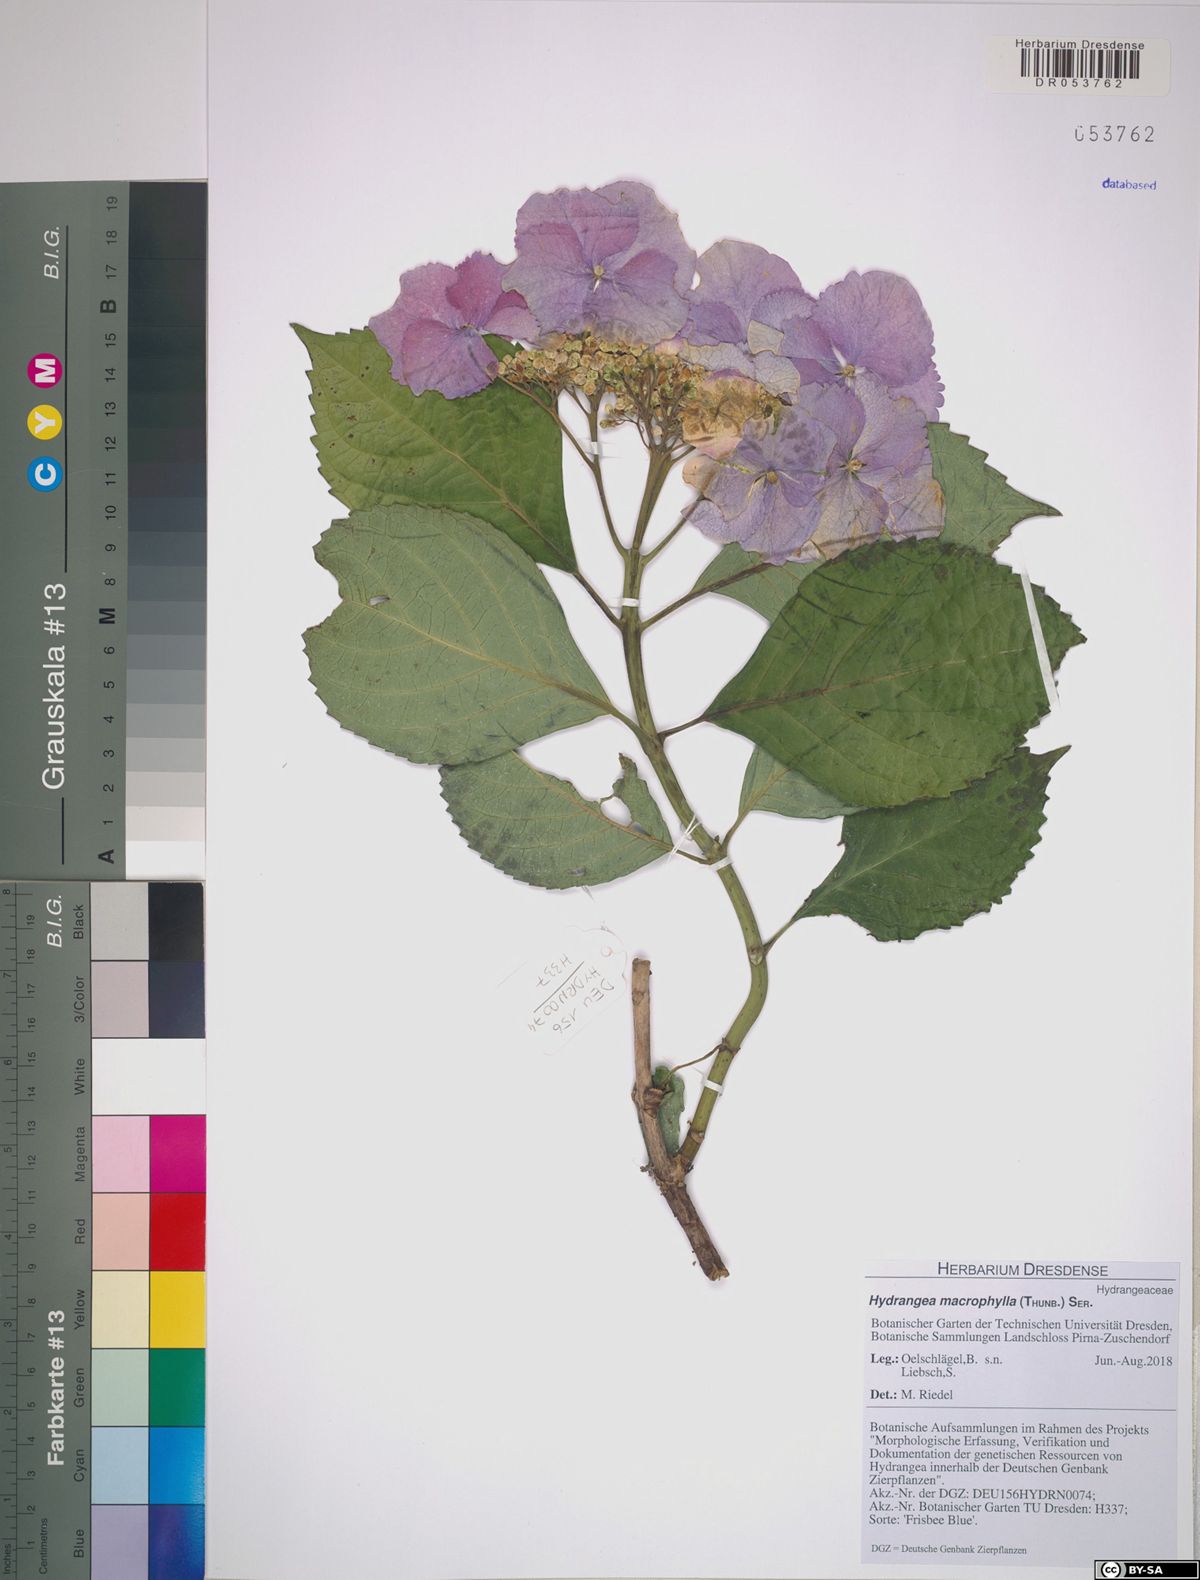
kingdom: Plantae
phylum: Tracheophyta
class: Magnoliopsida
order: Cornales
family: Hydrangeaceae
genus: Hydrangea
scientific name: Hydrangea macrophylla
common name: Hydrangea
